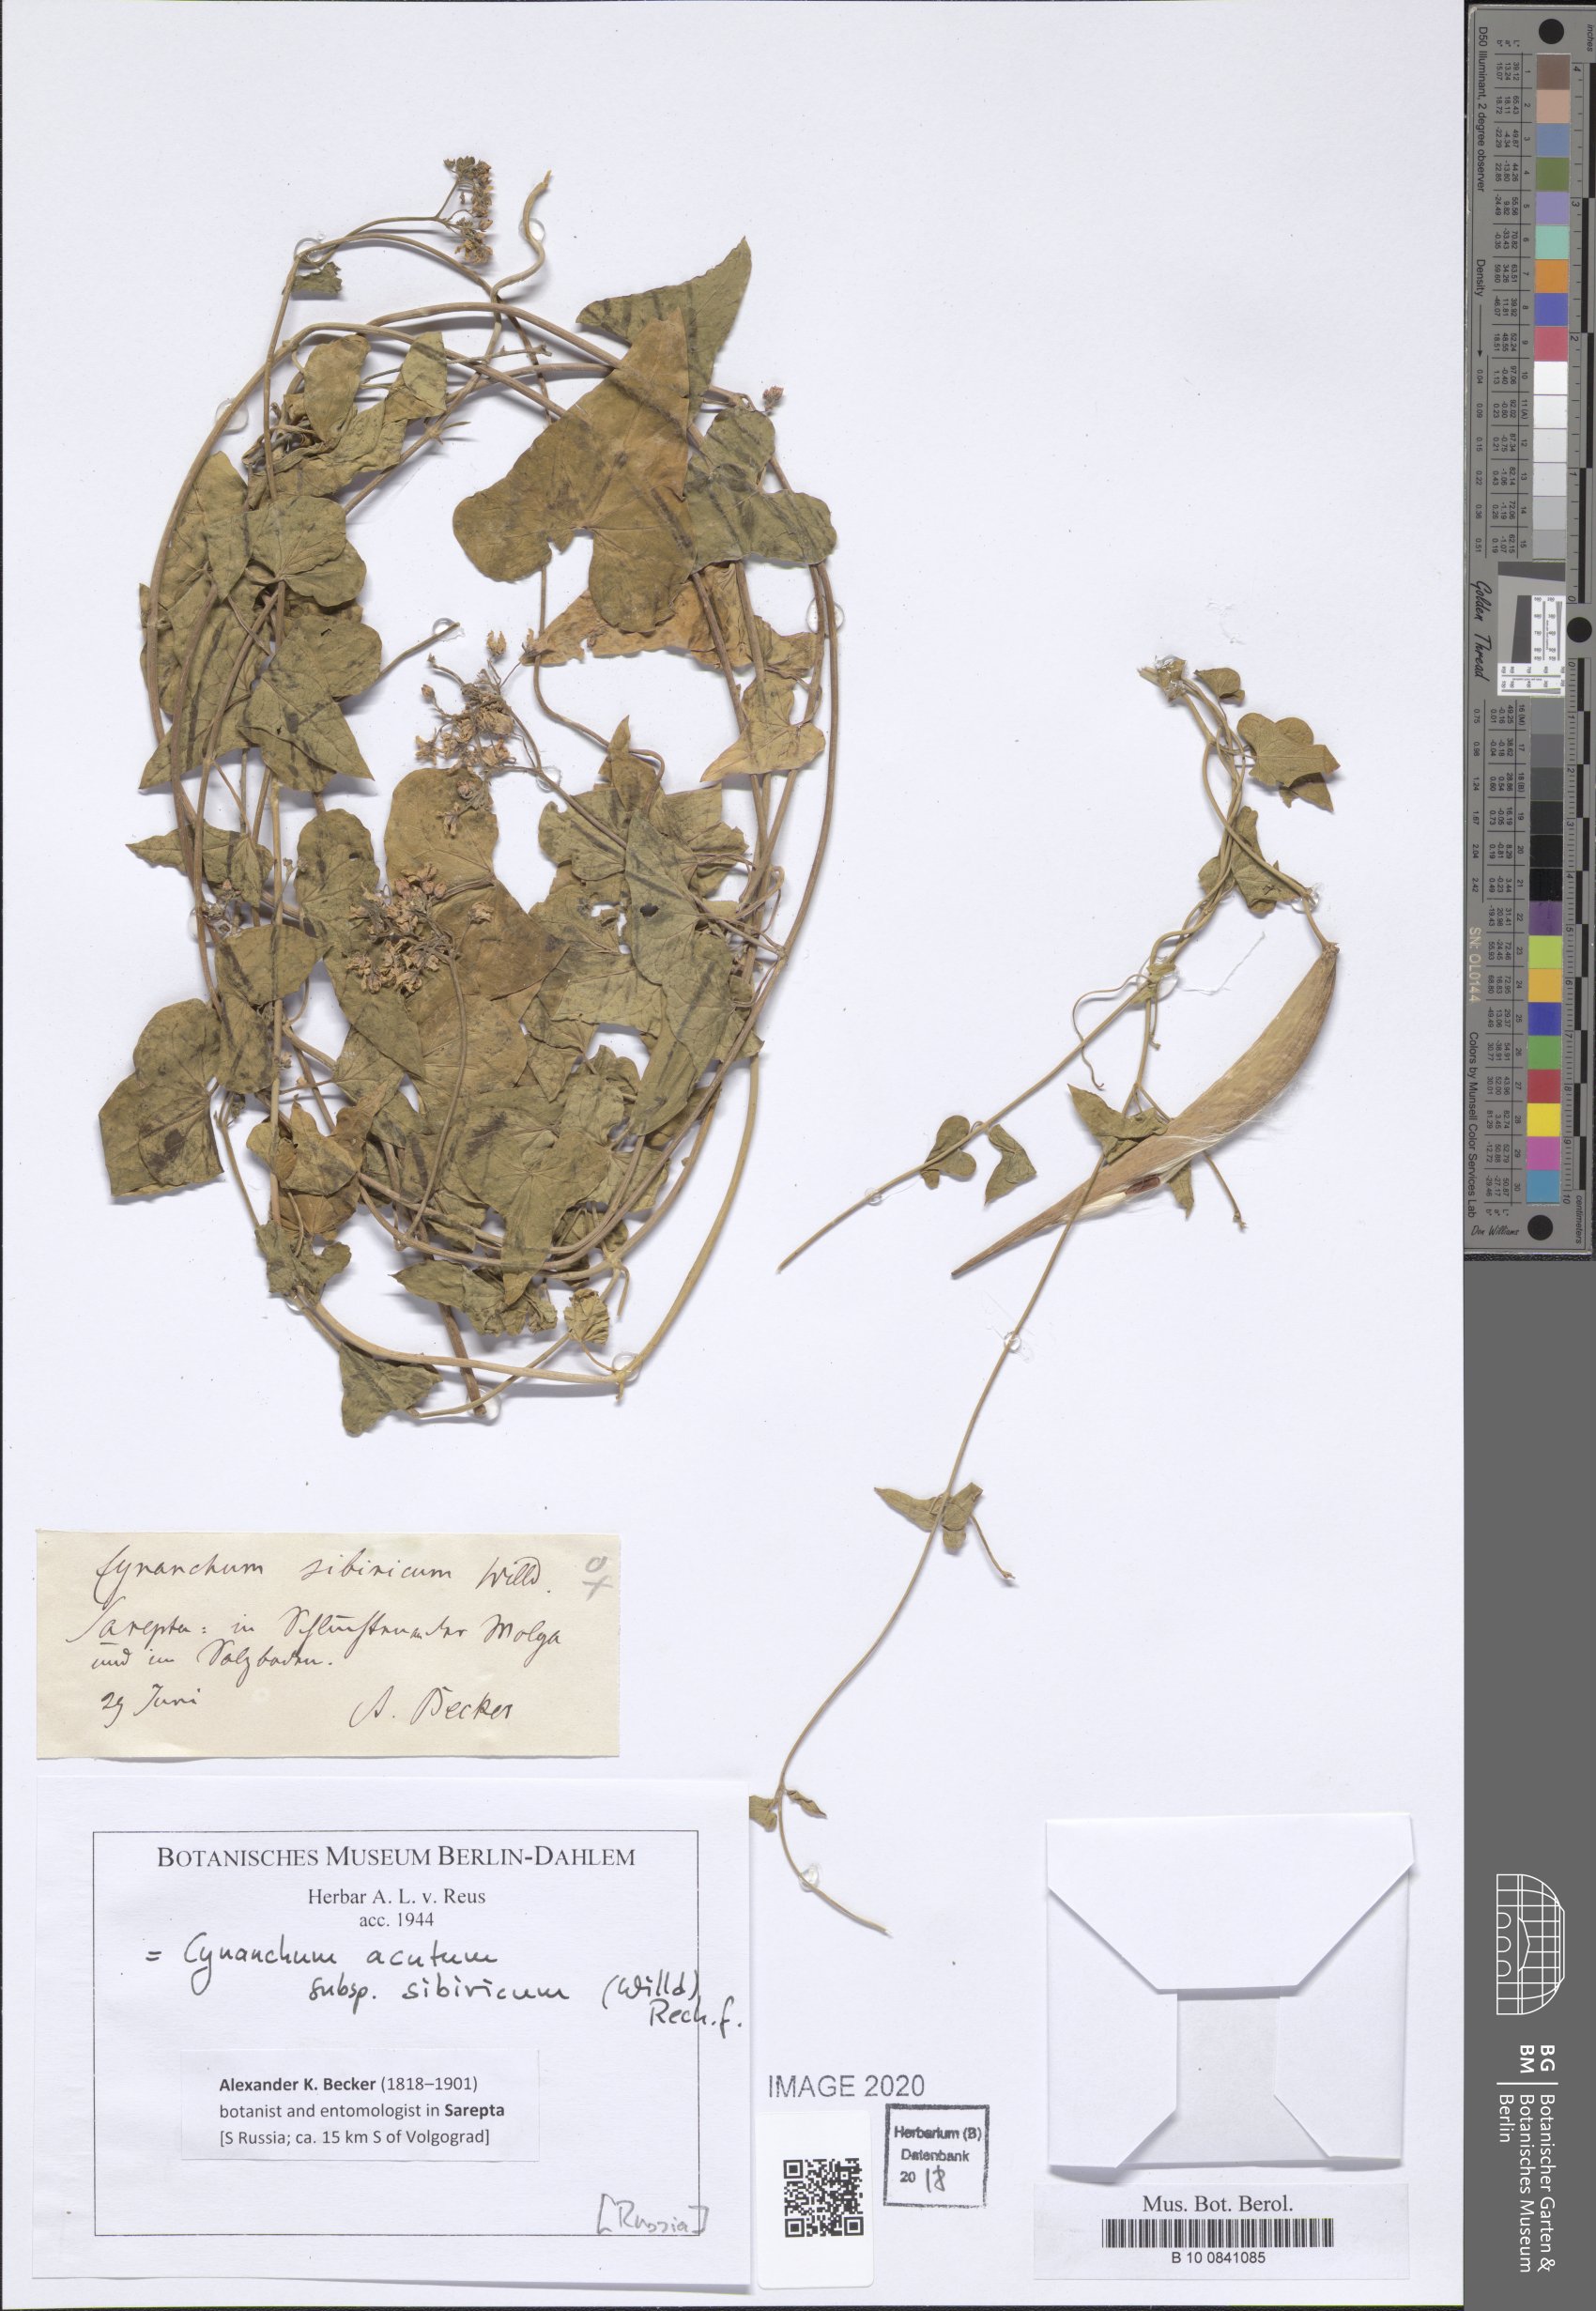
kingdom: Plantae
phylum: Tracheophyta
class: Magnoliopsida
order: Gentianales
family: Apocynaceae
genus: Cynanchum
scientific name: Cynanchum acutum
